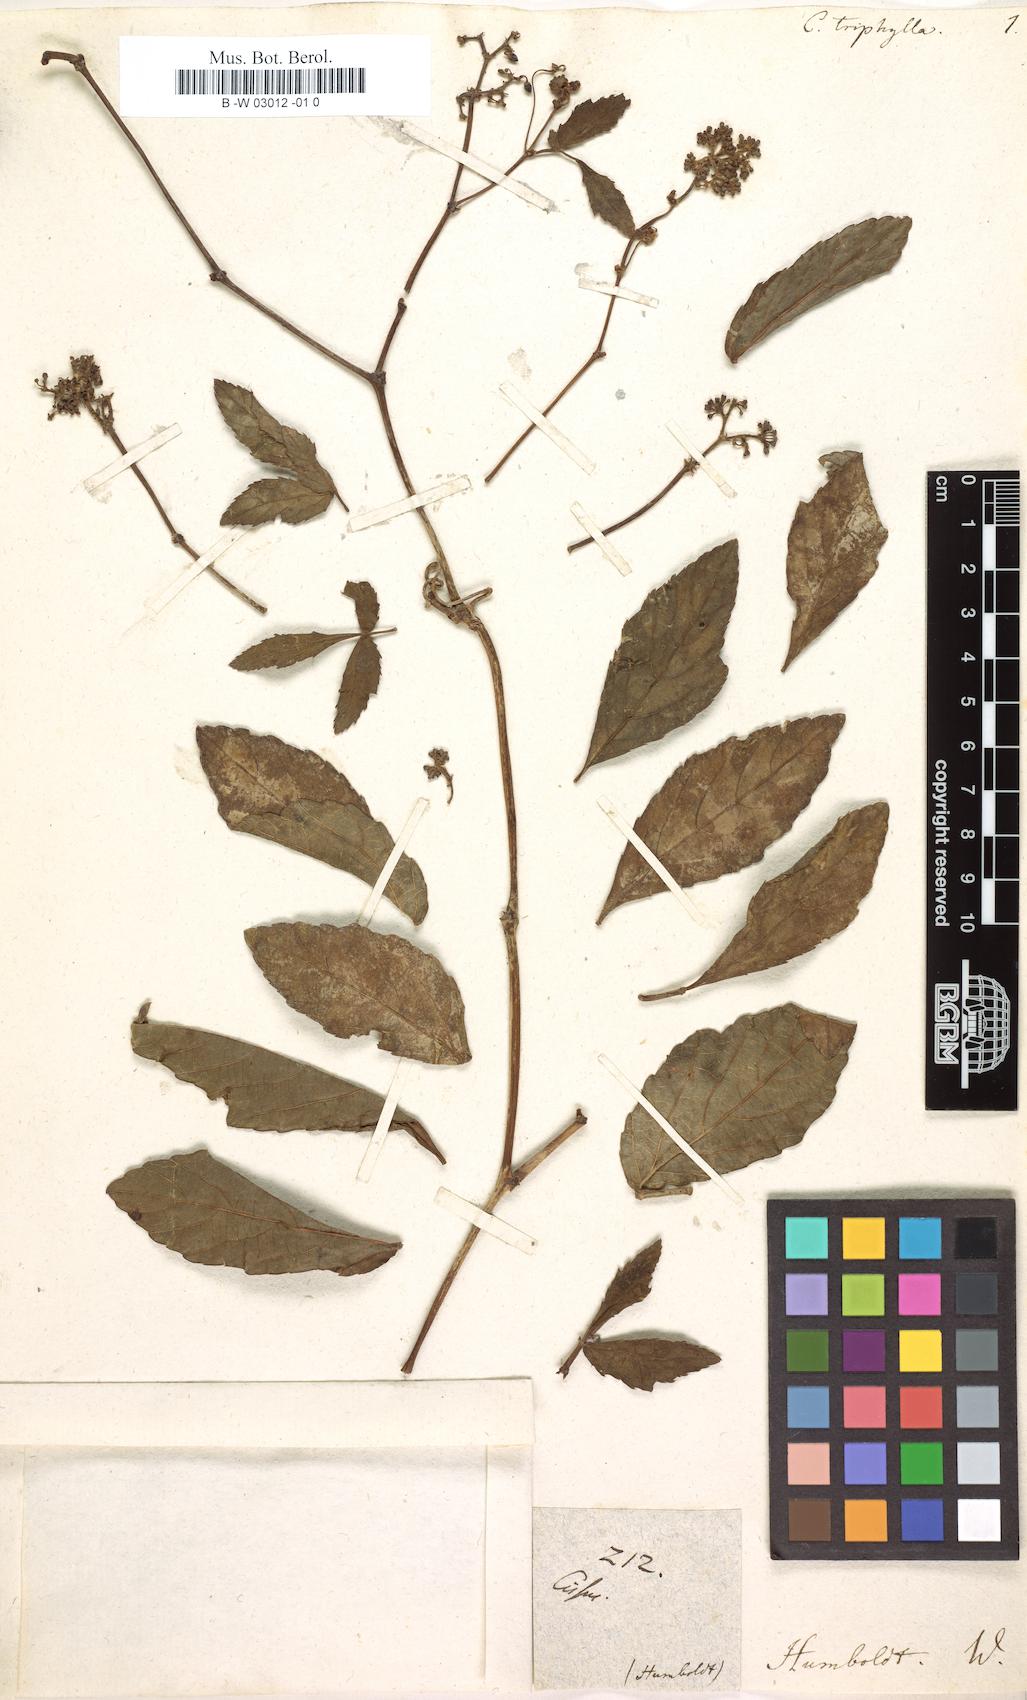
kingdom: Plantae
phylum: Tracheophyta
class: Magnoliopsida
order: Vitales
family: Vitaceae
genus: Cissus
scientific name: Cissus
